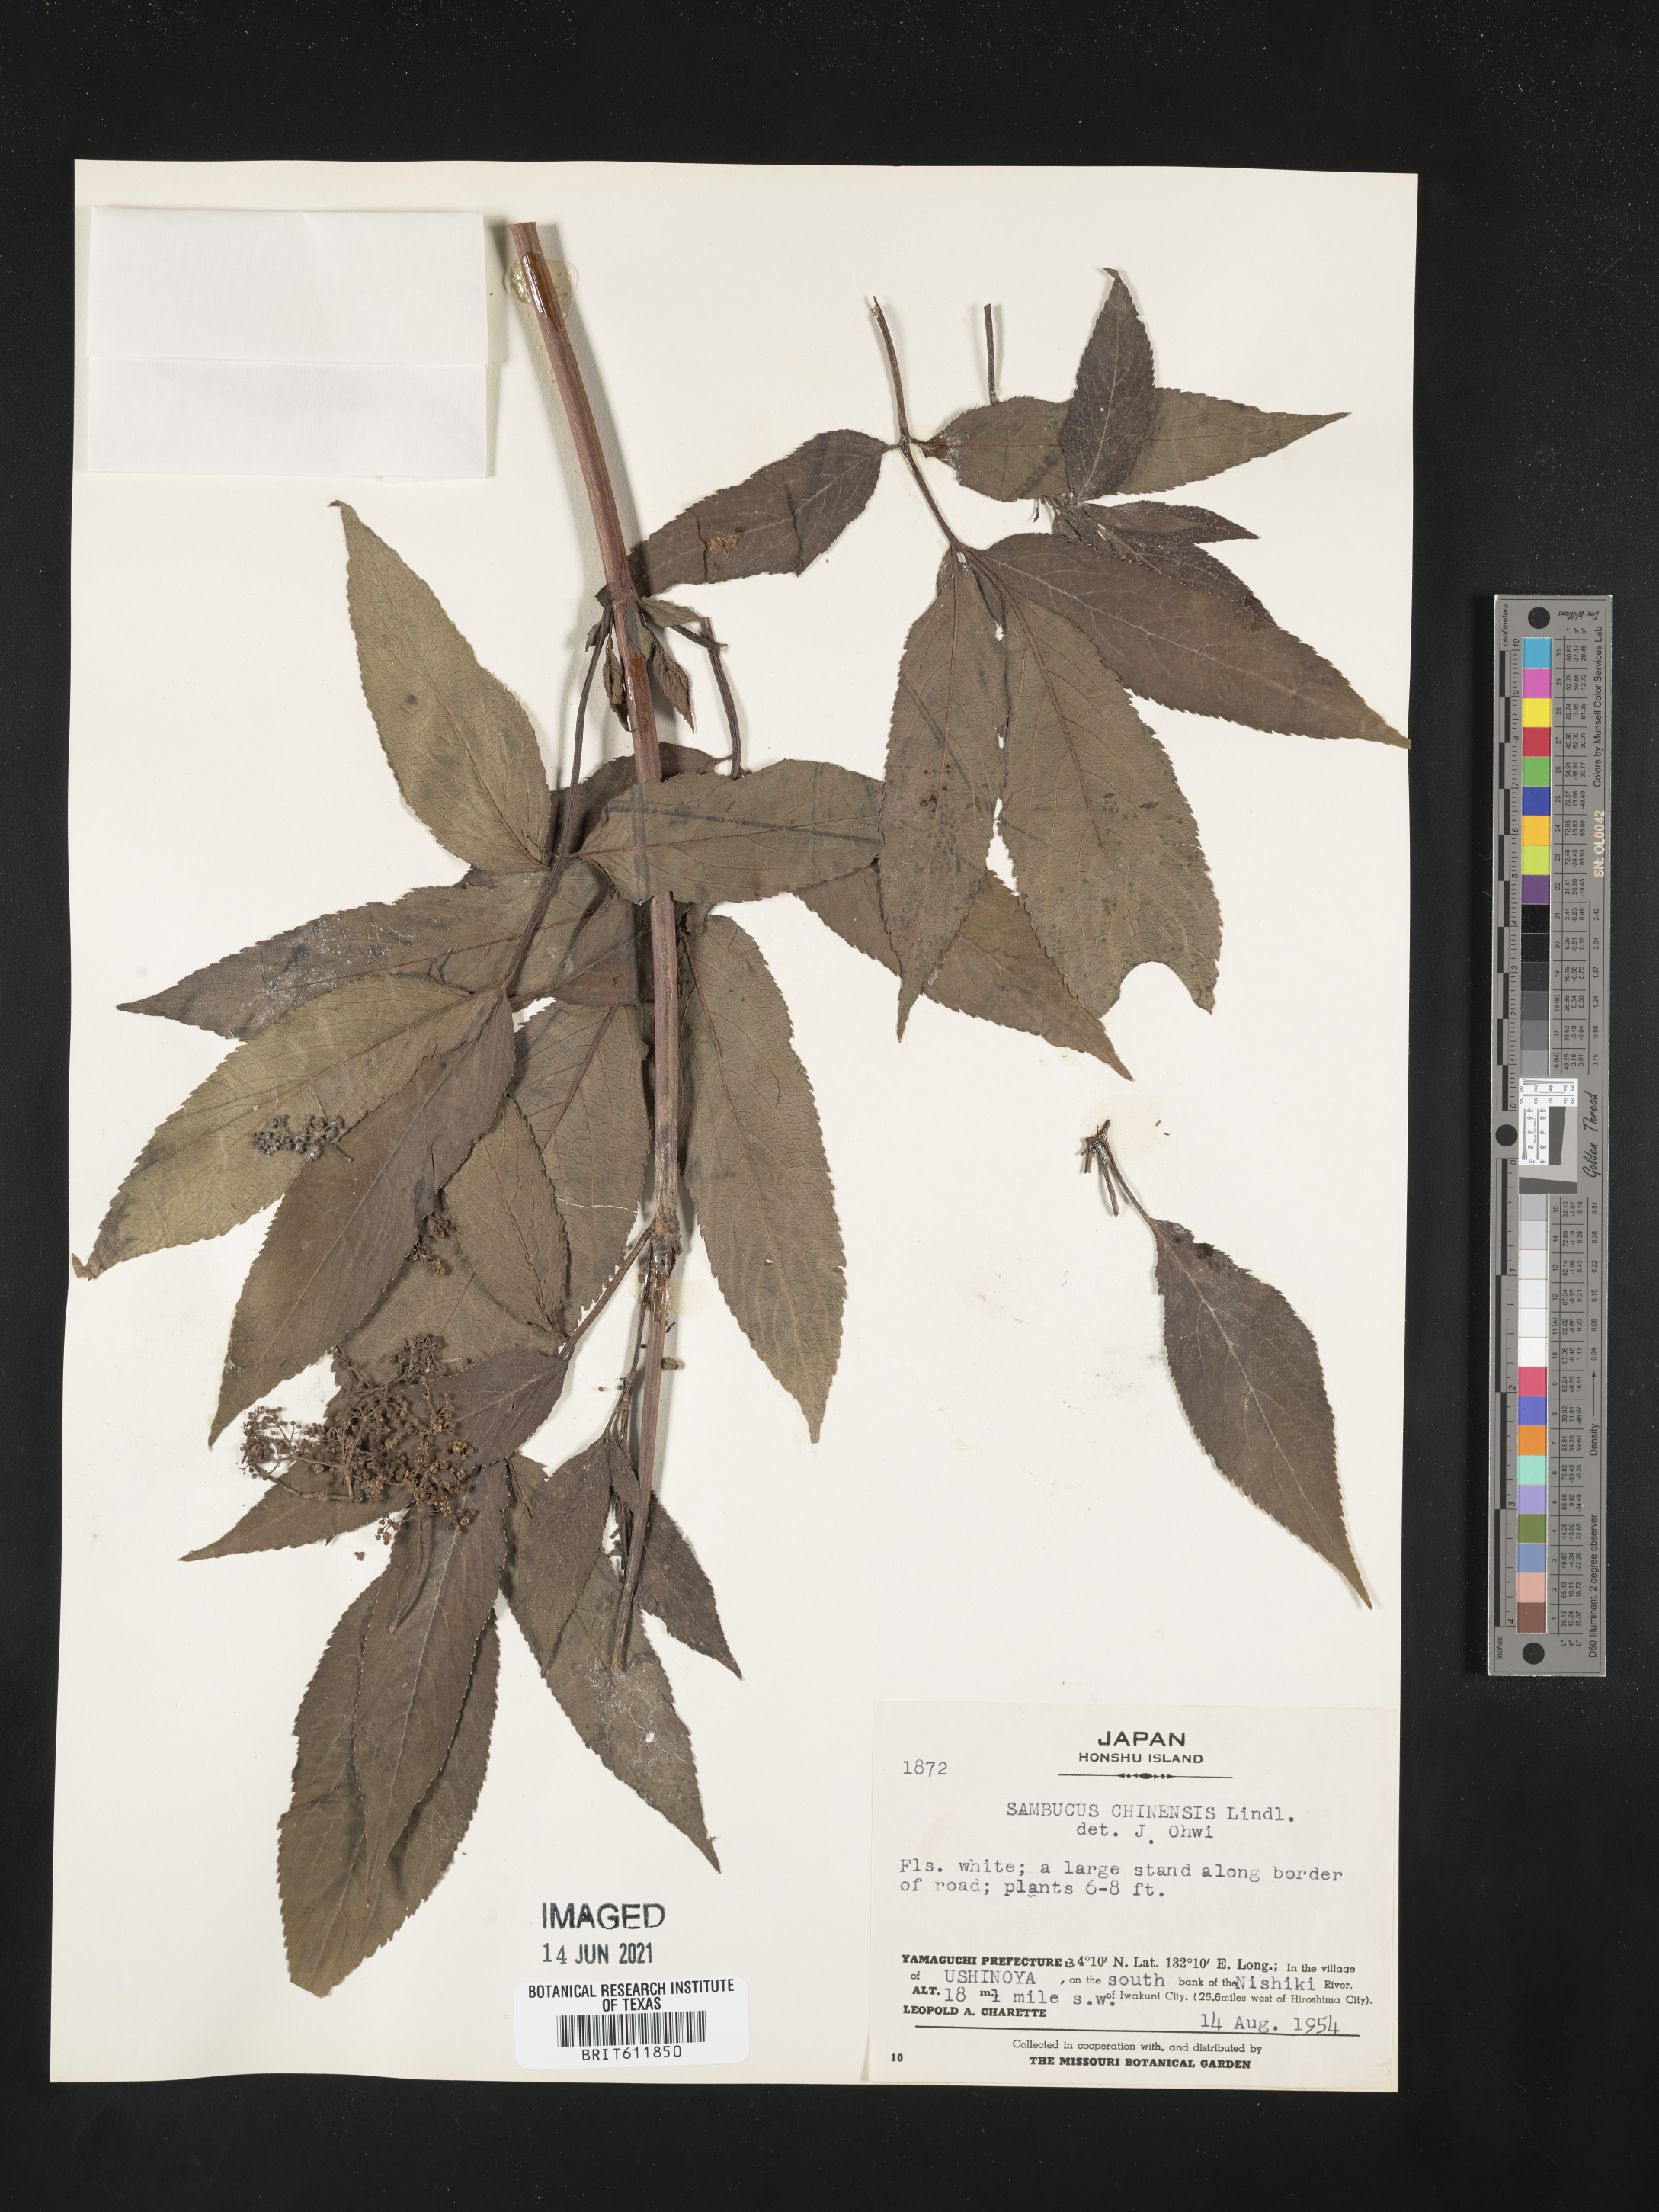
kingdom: Plantae
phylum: Tracheophyta
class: Magnoliopsida
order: Dipsacales
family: Viburnaceae
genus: Sambucus
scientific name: Sambucus javanica
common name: Chinese elder
